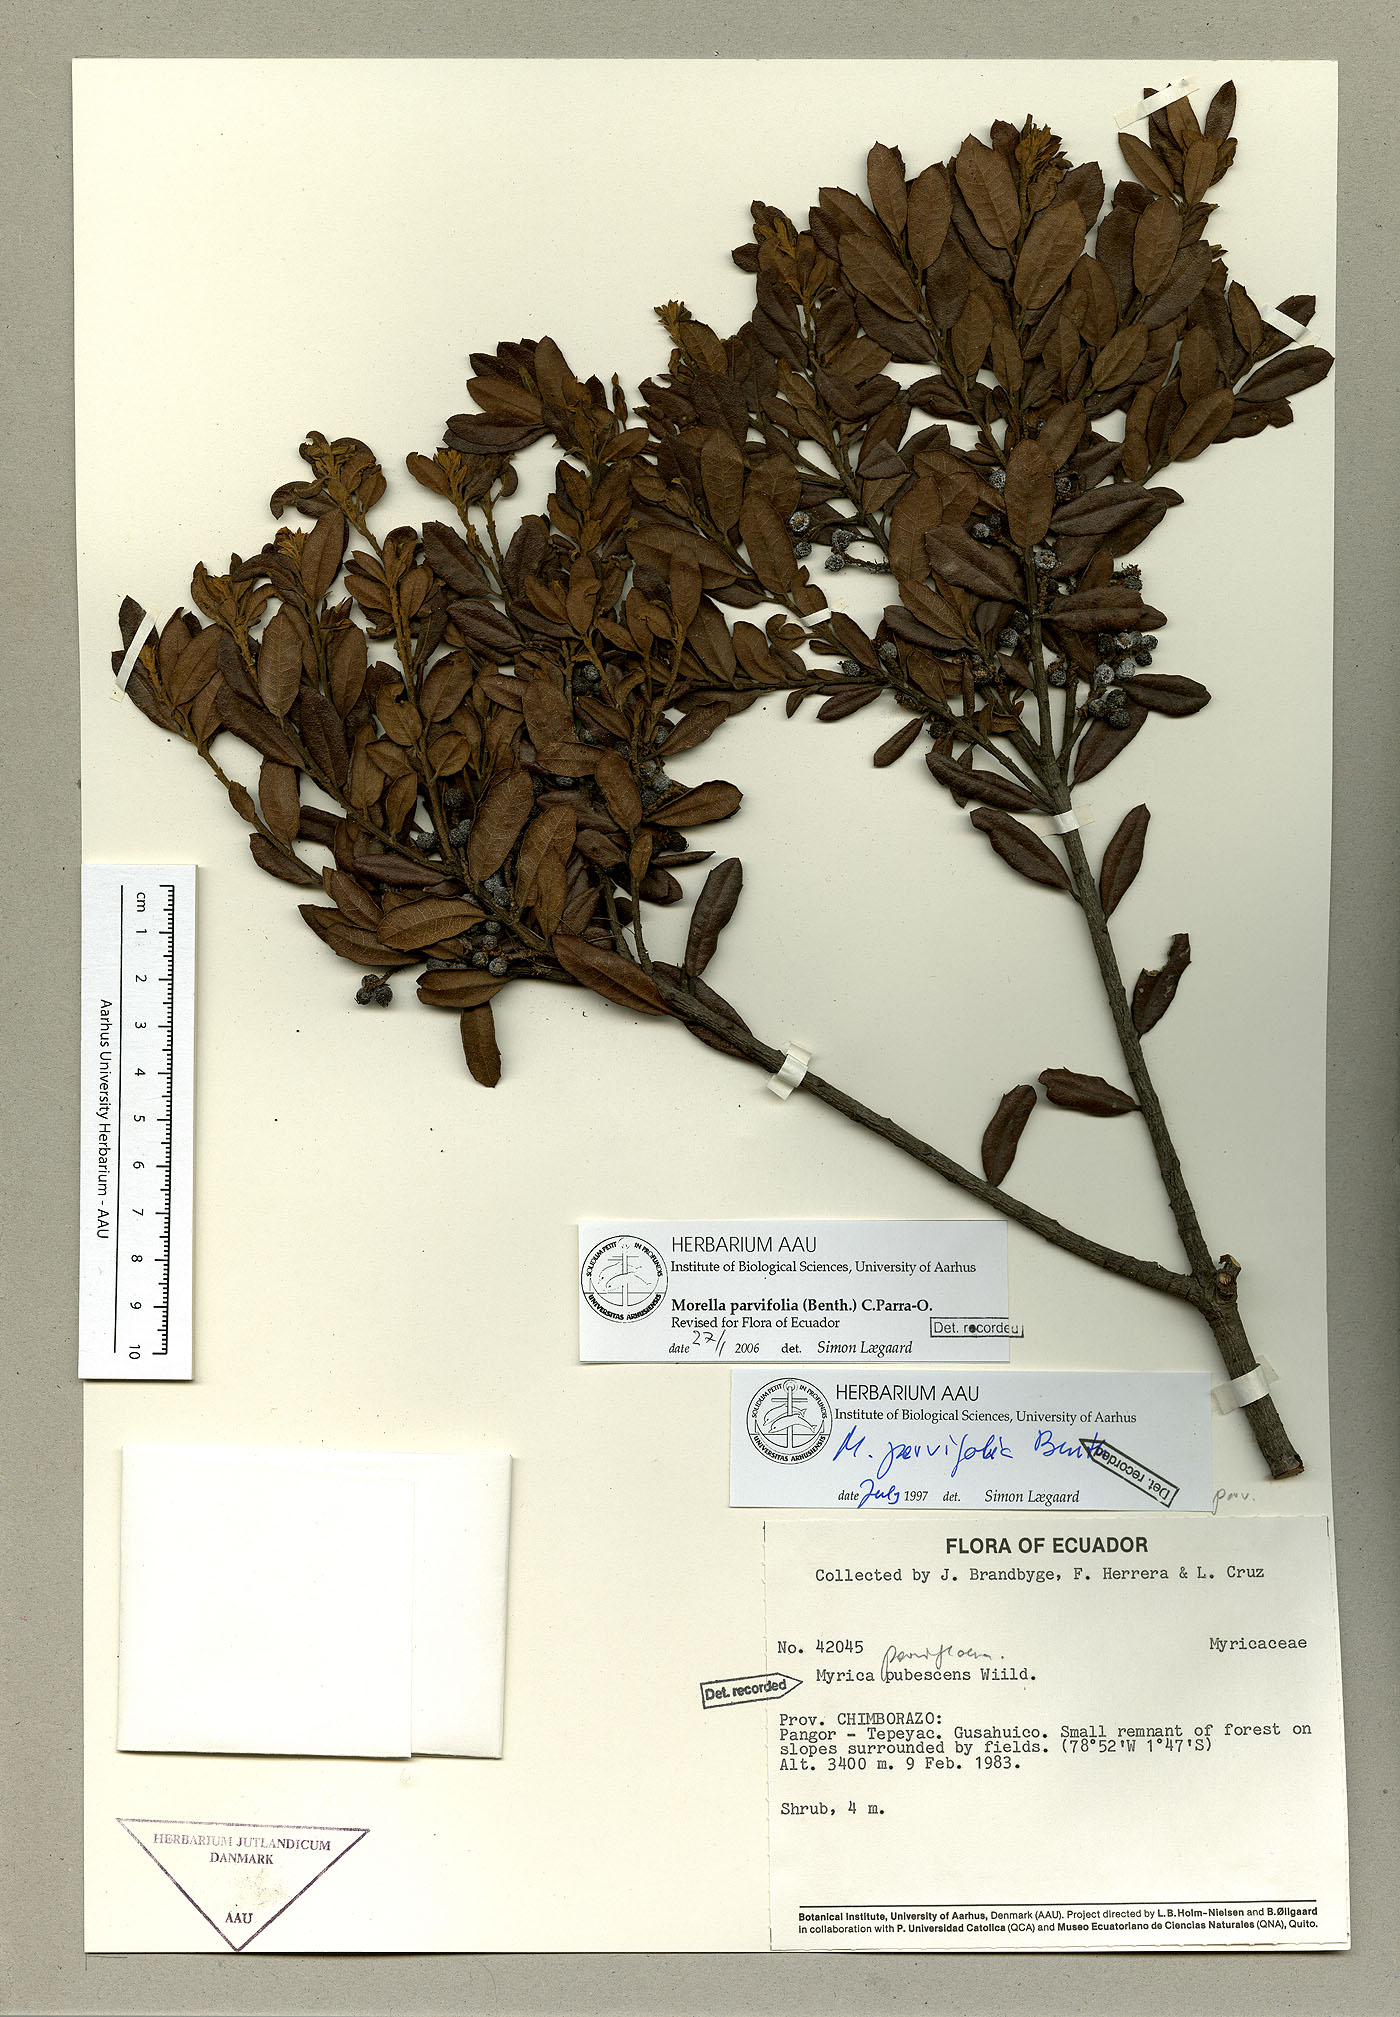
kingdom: Plantae
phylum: Tracheophyta
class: Magnoliopsida
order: Fagales
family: Myricaceae
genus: Morella
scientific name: Morella parvifolia
